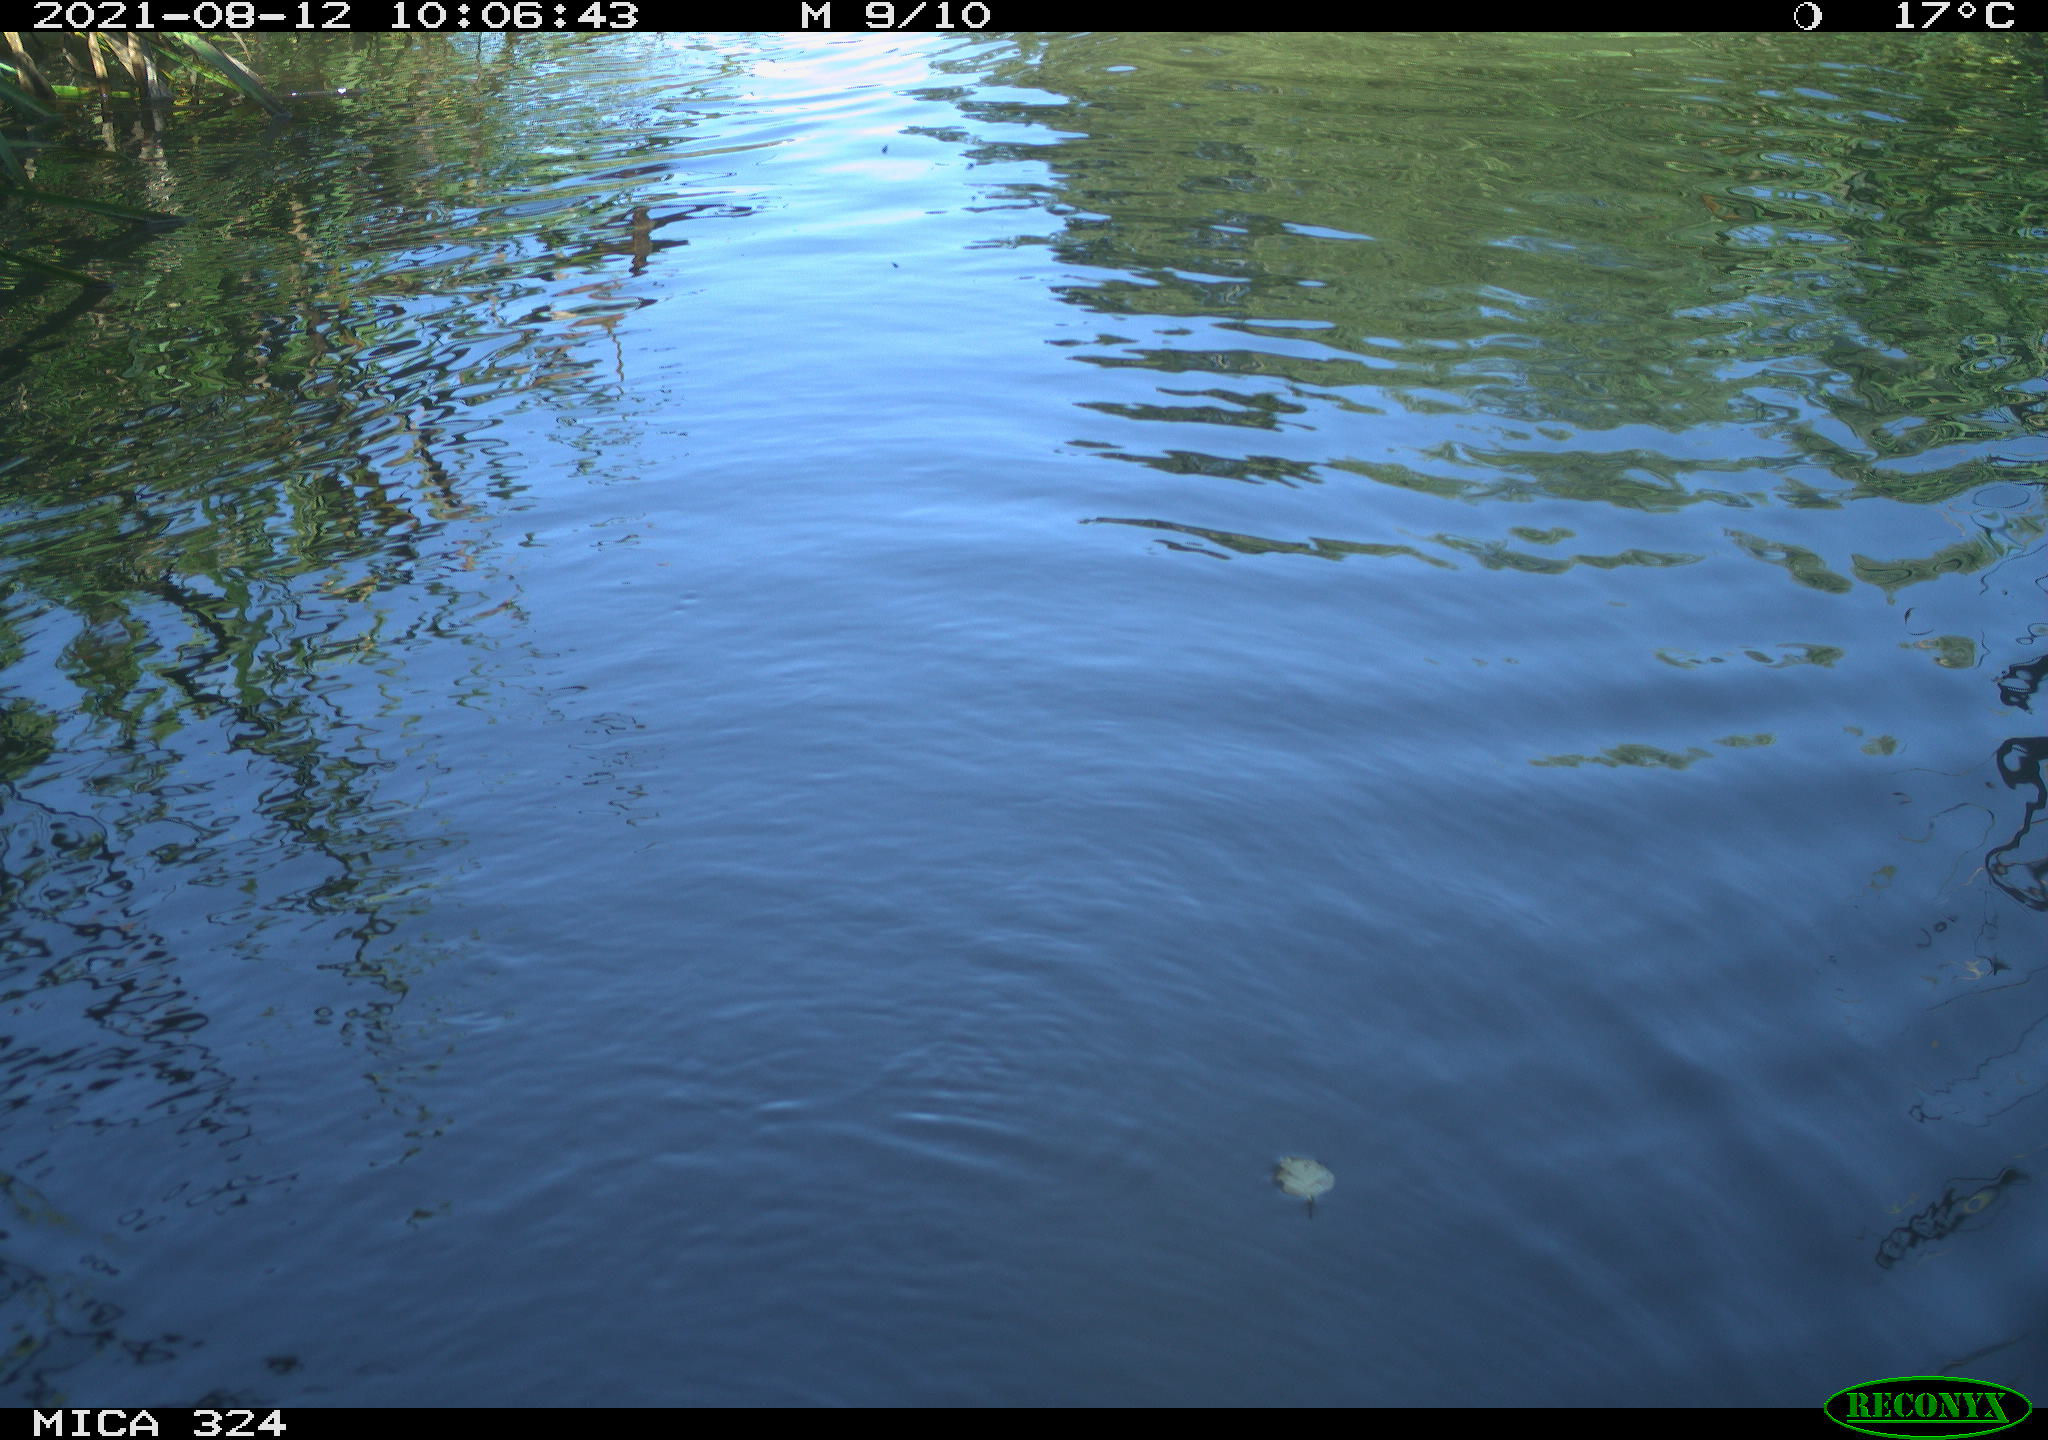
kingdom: Animalia
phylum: Chordata
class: Mammalia
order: Rodentia
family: Cricetidae
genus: Ondatra
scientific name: Ondatra zibethicus
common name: Muskrat
